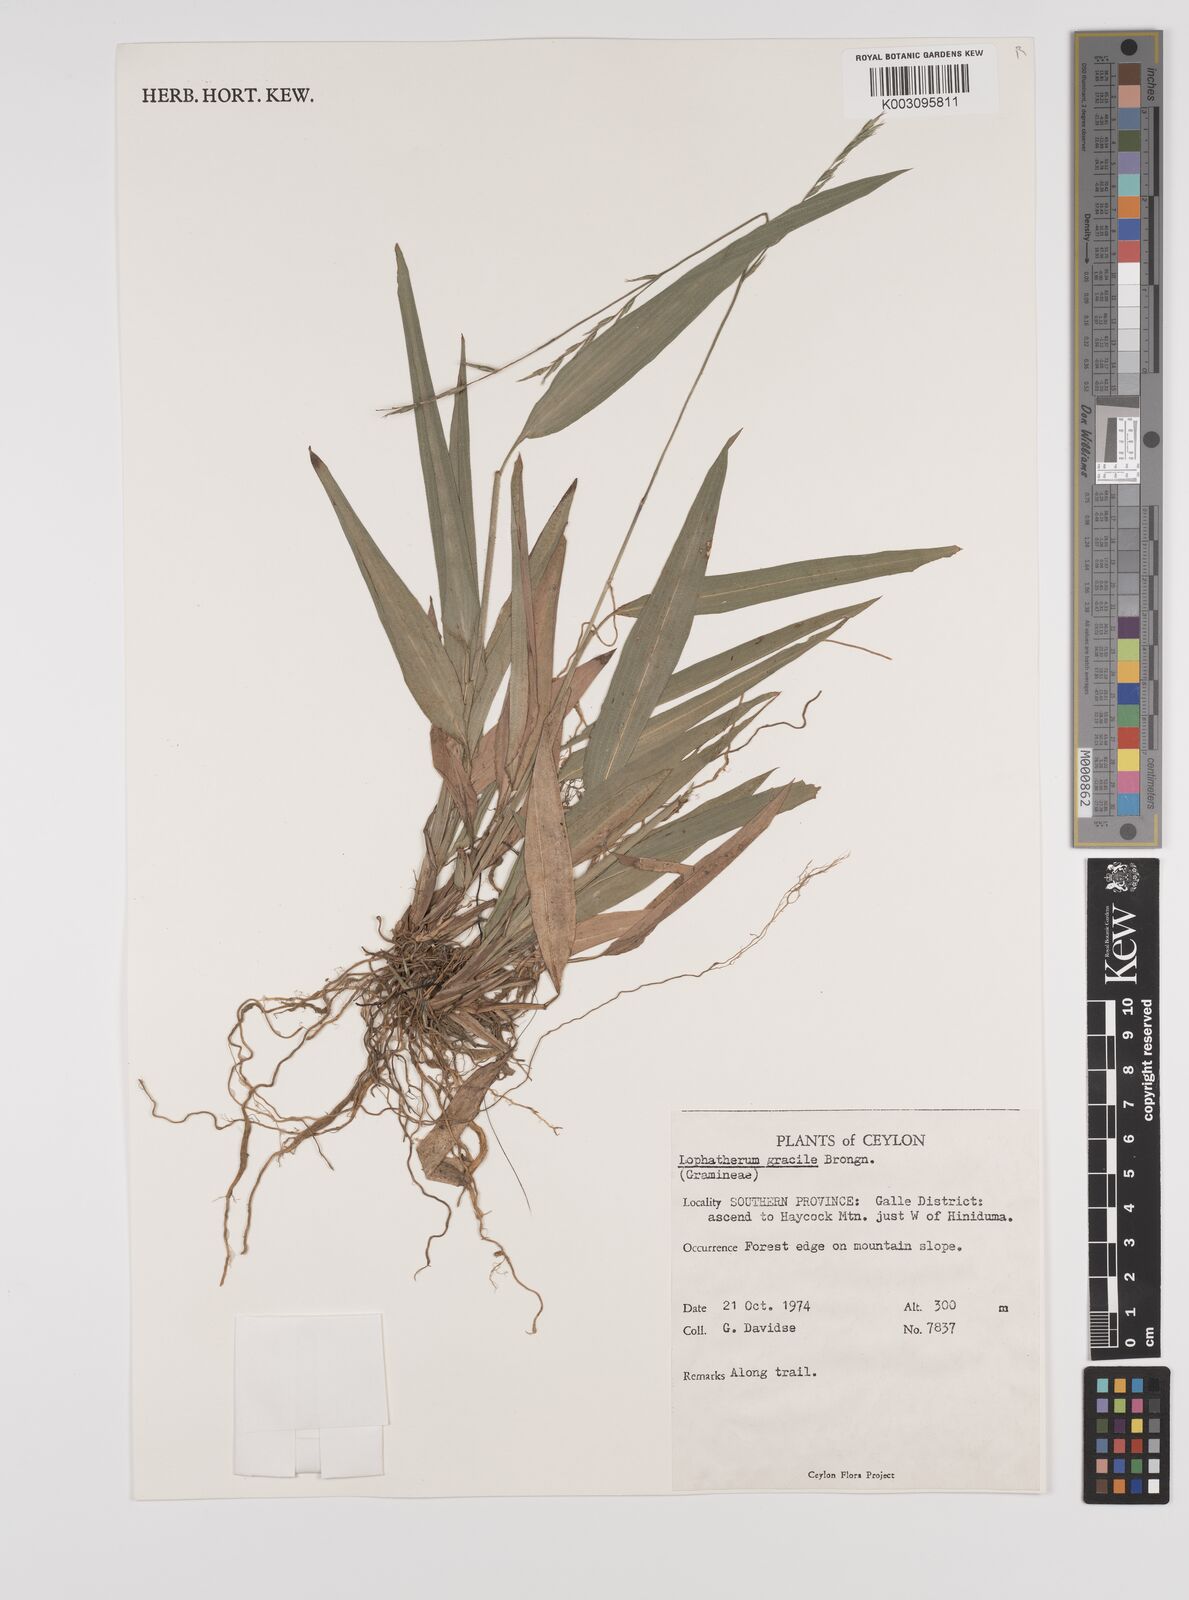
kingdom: Plantae
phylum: Tracheophyta
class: Liliopsida
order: Poales
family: Poaceae
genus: Lophatherum
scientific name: Lophatherum gracile
